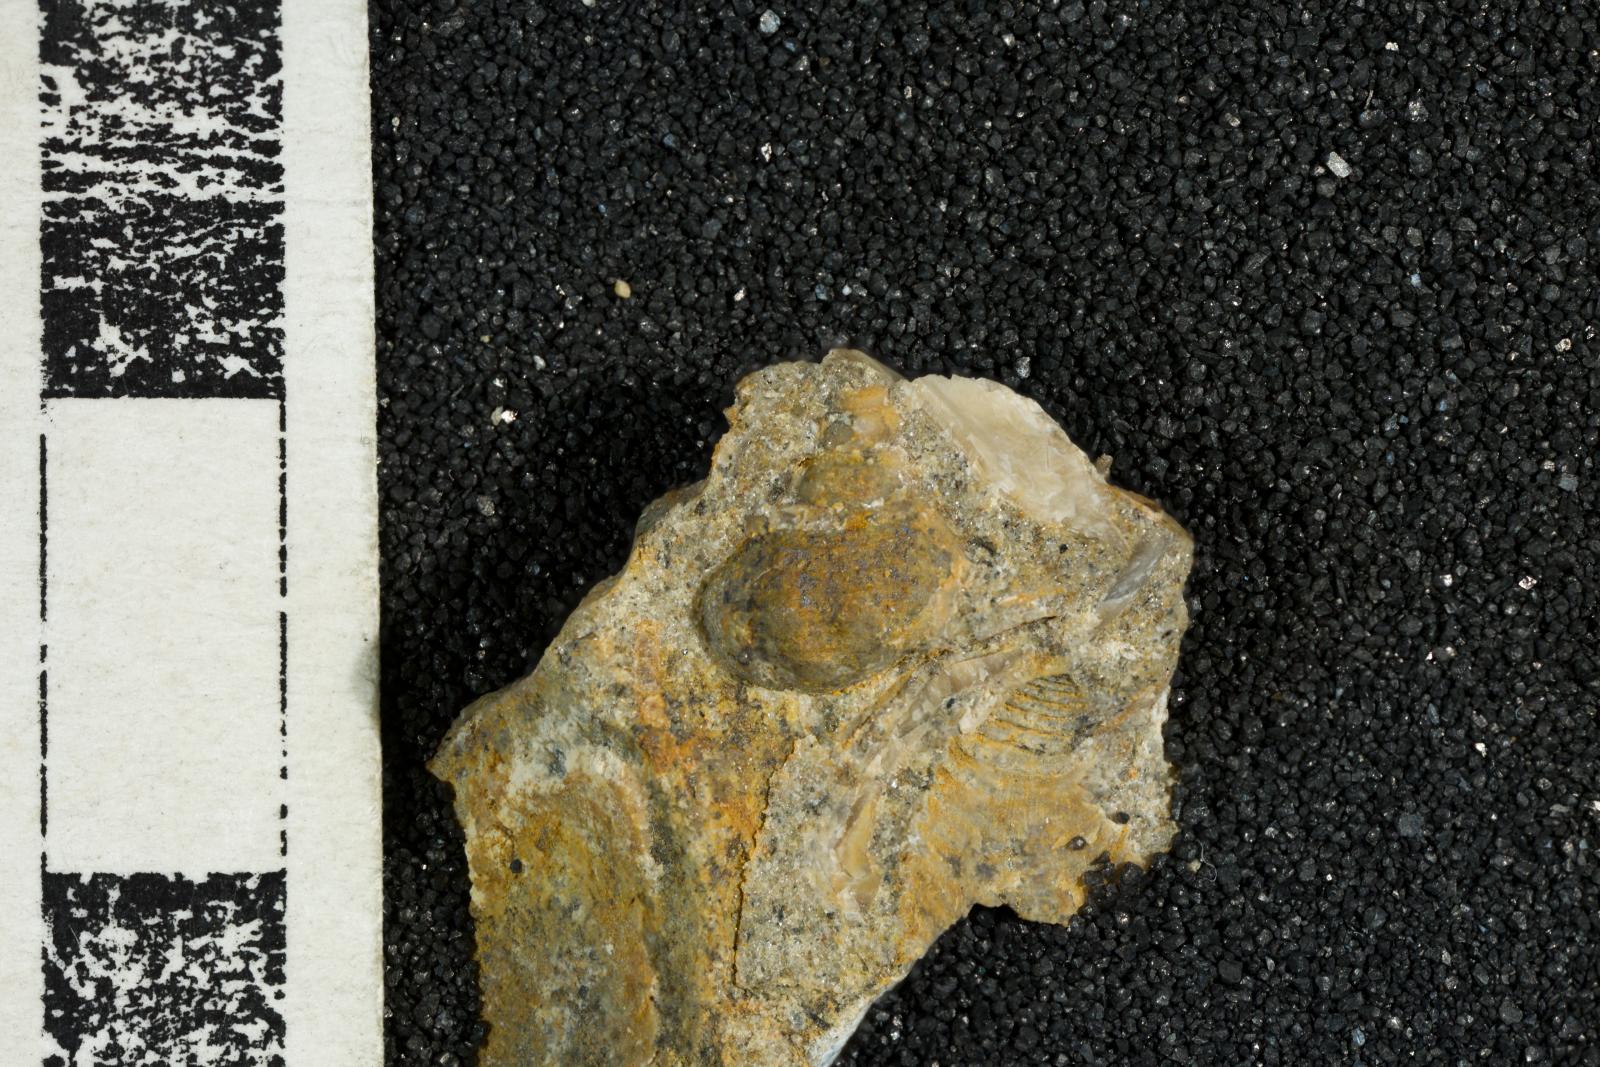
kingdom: Animalia
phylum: Mollusca
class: Gastropoda
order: Neogastropoda
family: Perissityidae
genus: Perissitys
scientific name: Perissitys Perissolax brevirostris
